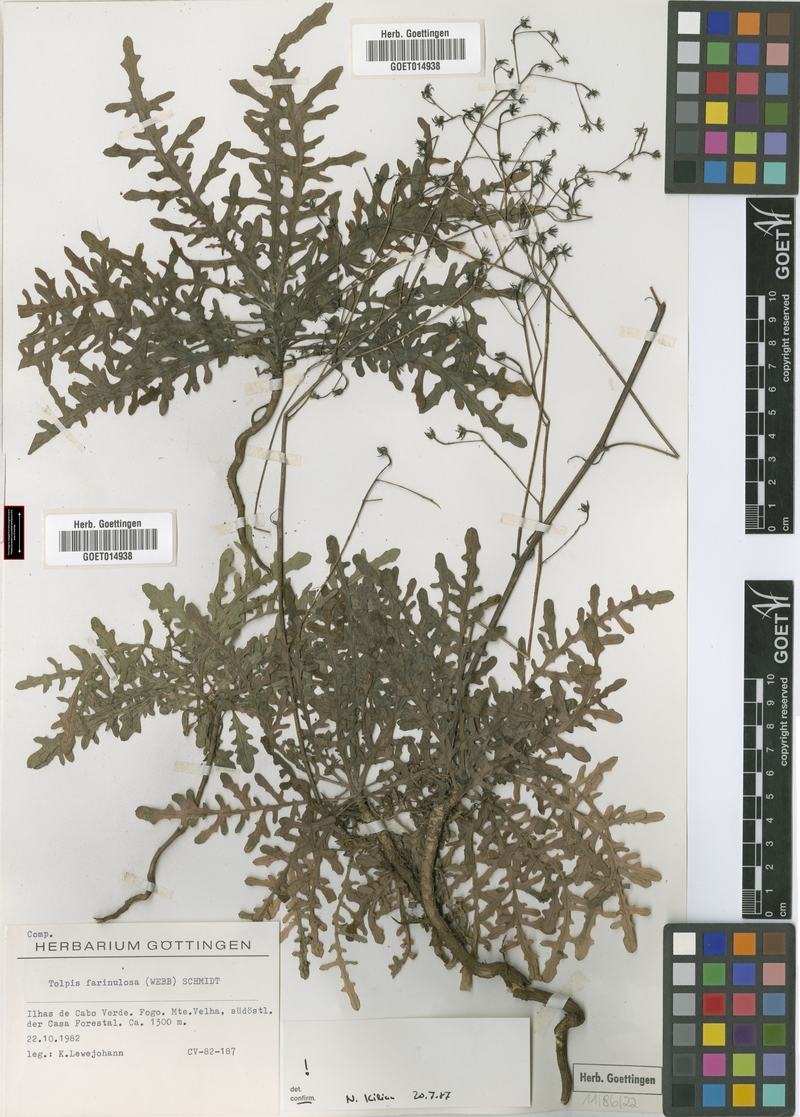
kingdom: Plantae
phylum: Tracheophyta
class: Magnoliopsida
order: Asterales
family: Asteraceae
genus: Tolpis
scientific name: Tolpis farinulosa
